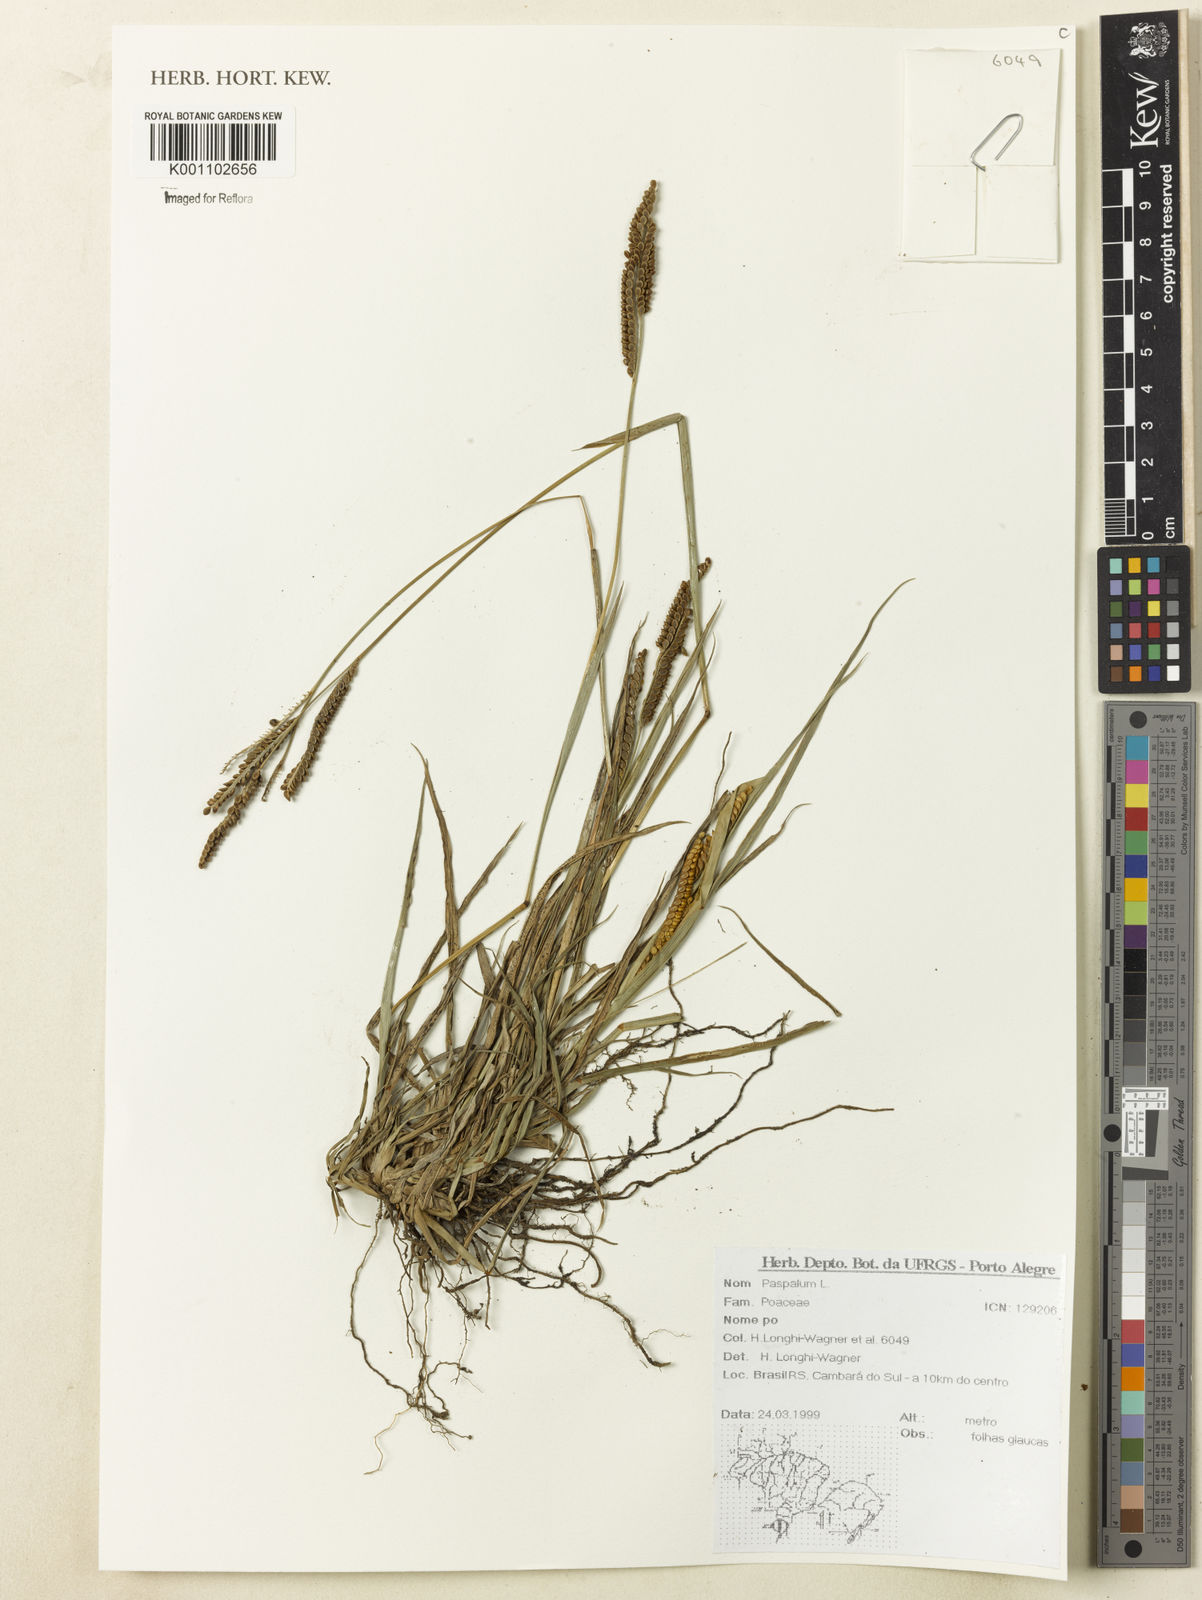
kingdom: Plantae
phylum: Tracheophyta
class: Liliopsida
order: Poales
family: Poaceae
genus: Paspalum
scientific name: Paspalum
